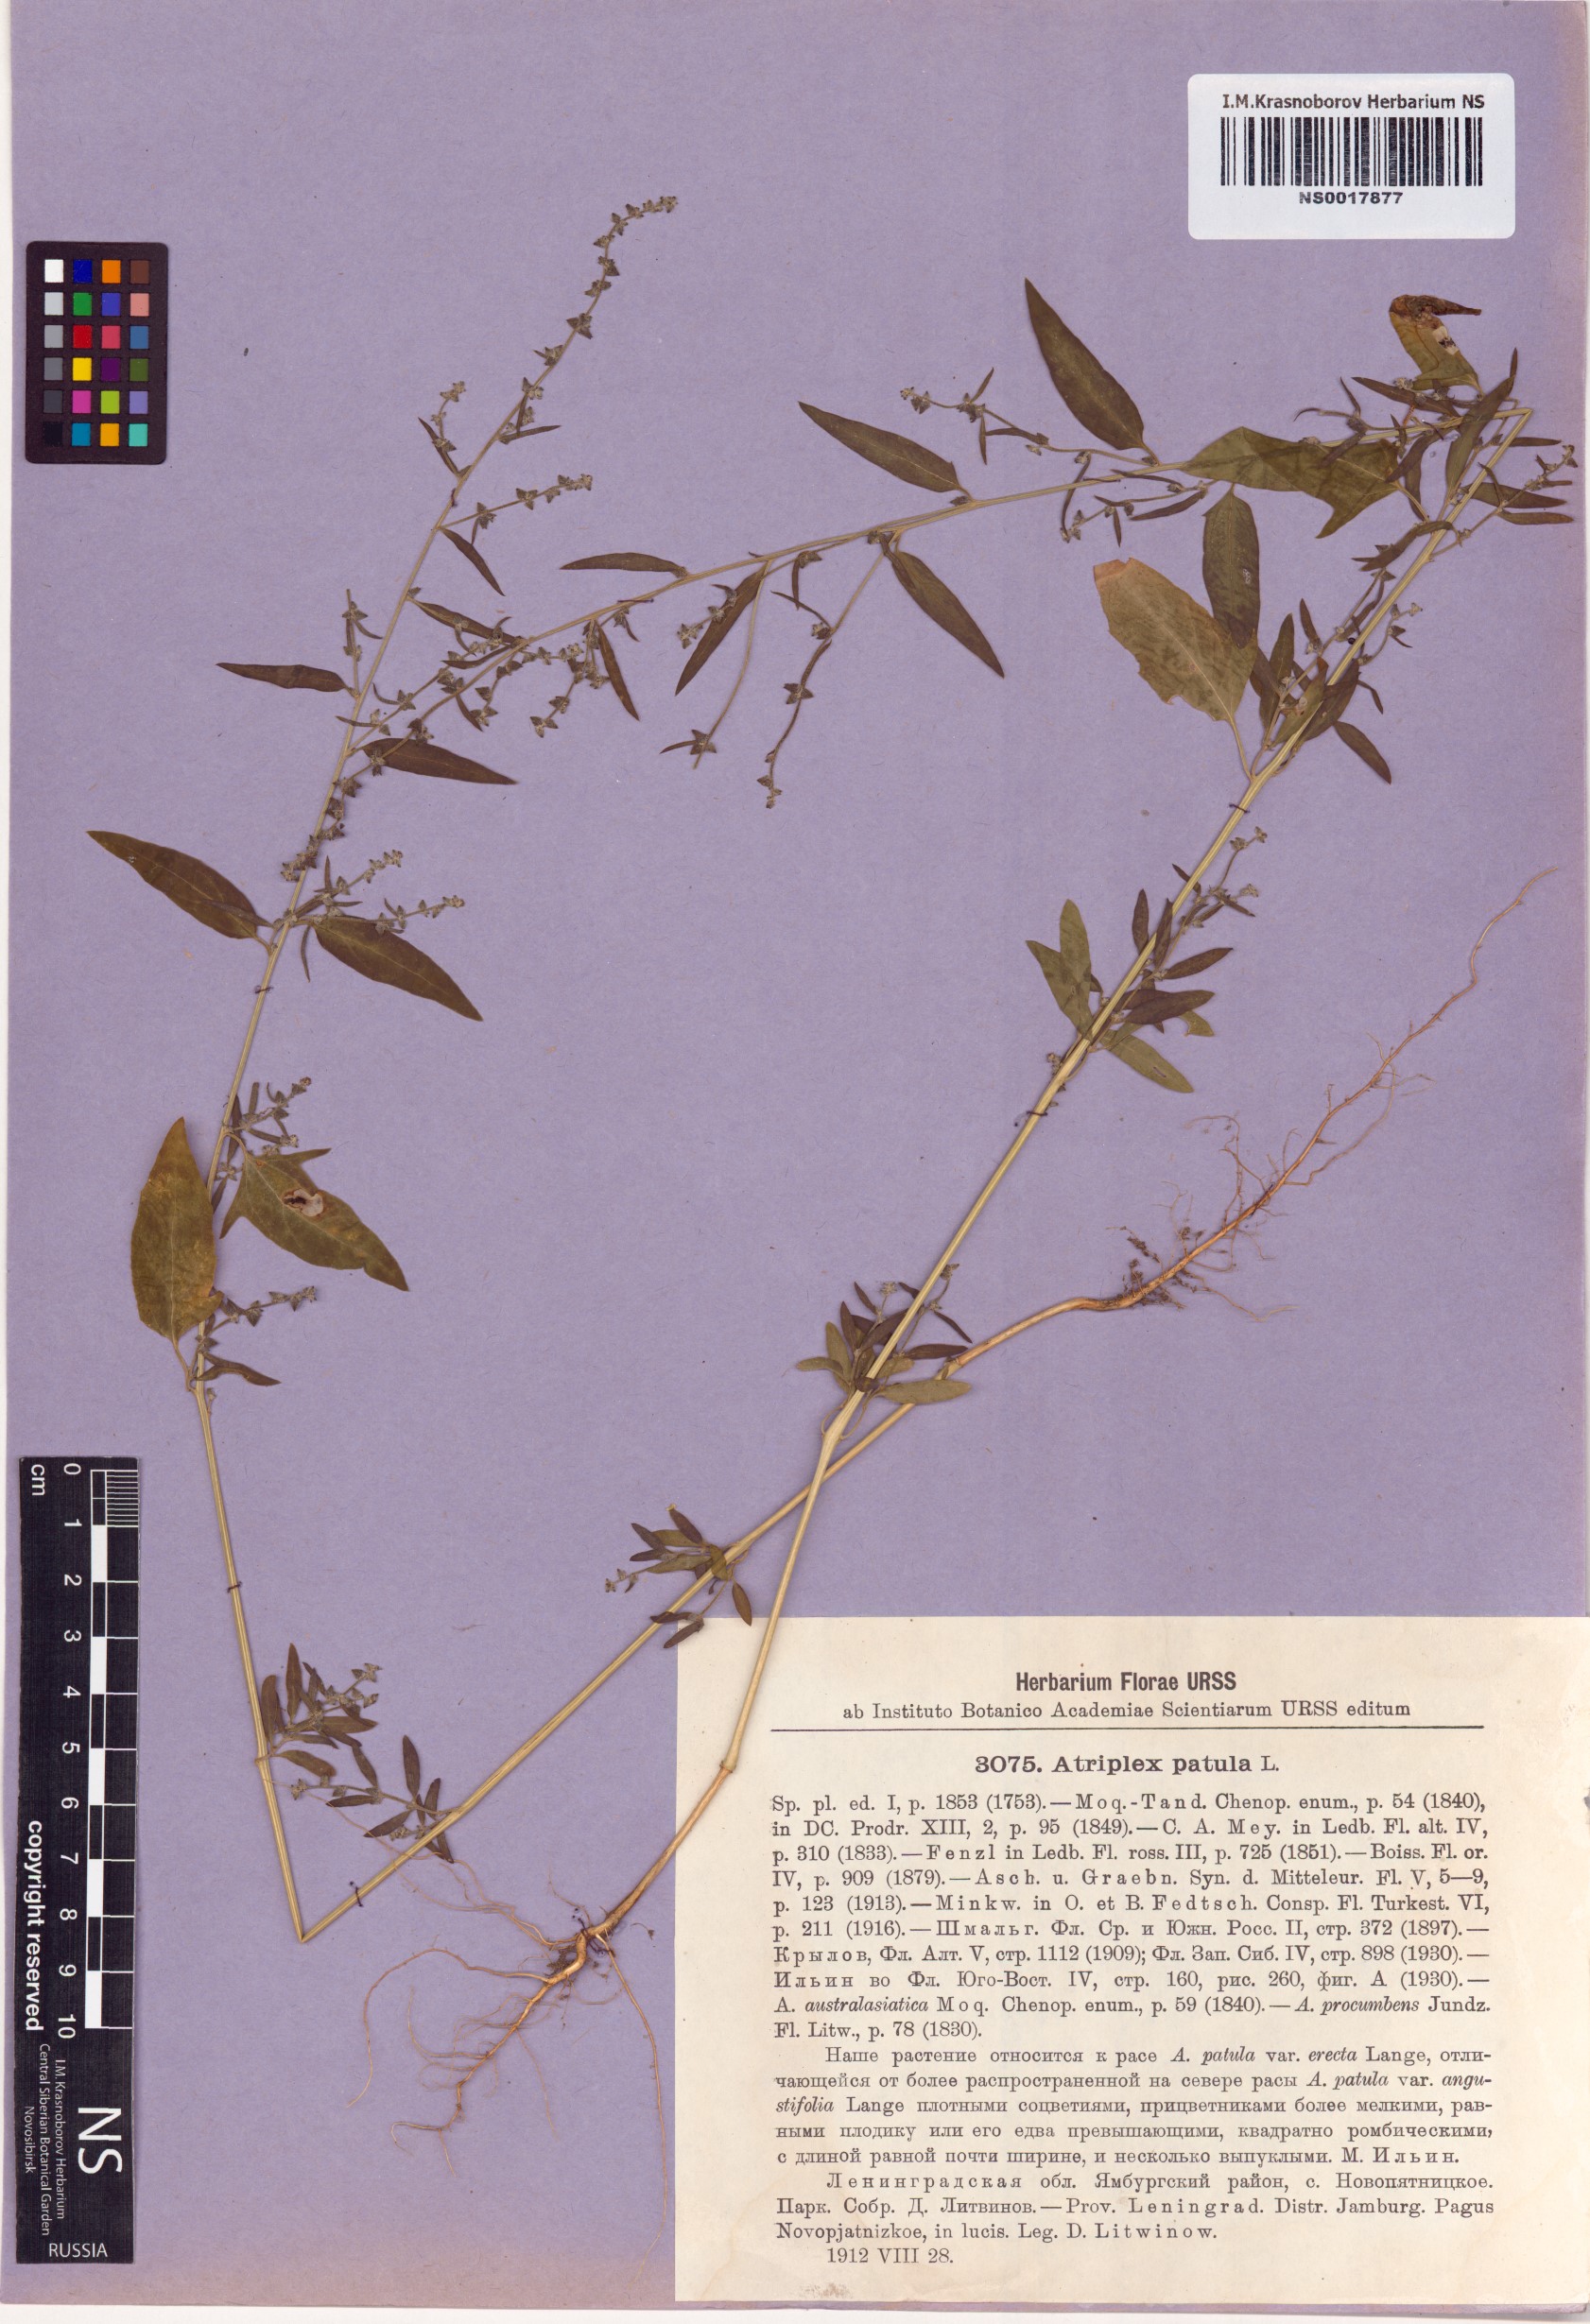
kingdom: Plantae
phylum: Tracheophyta
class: Magnoliopsida
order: Caryophyllales
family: Amaranthaceae
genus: Atriplex
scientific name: Atriplex patula
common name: Common orache
